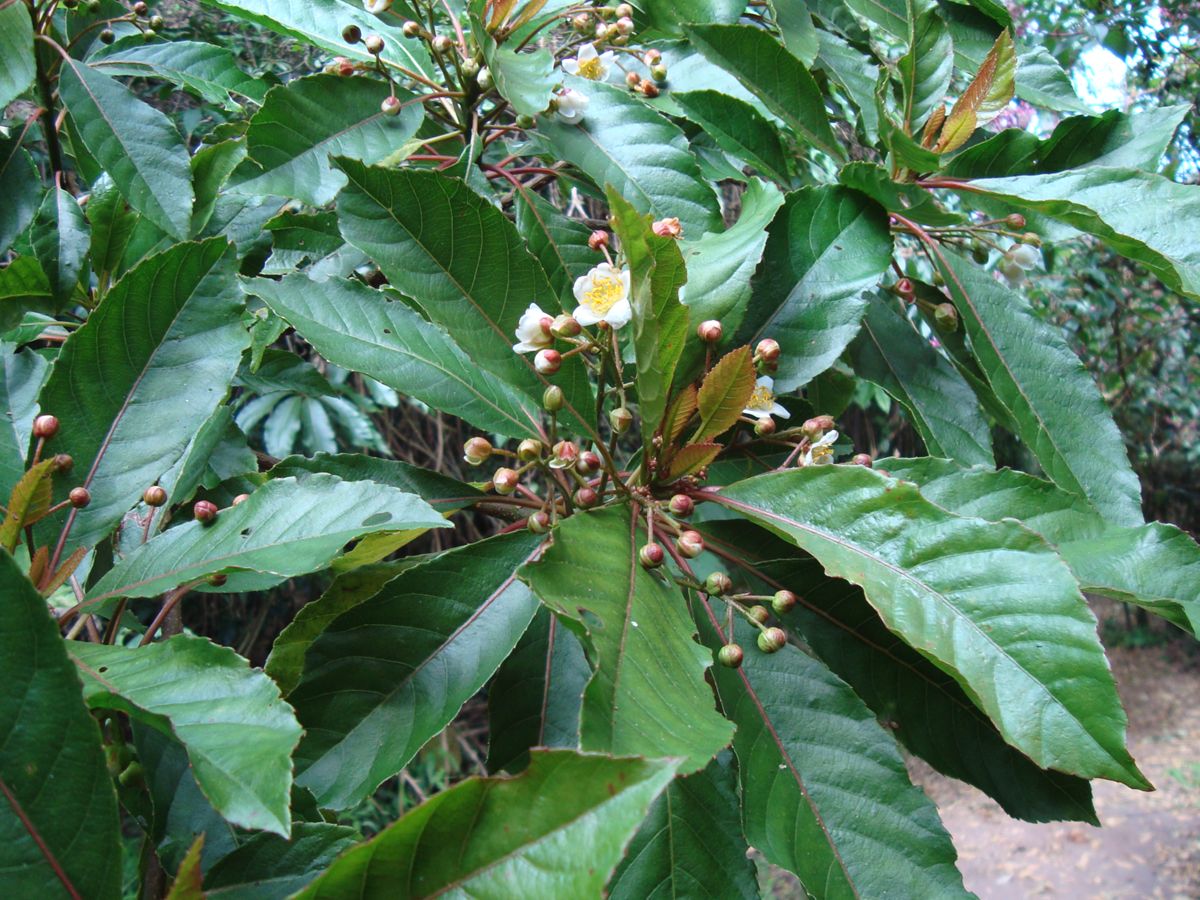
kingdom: Plantae
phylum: Tracheophyta
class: Magnoliopsida
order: Ericales
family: Actinidiaceae
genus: Saurauia
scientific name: Saurauia kegeliana
